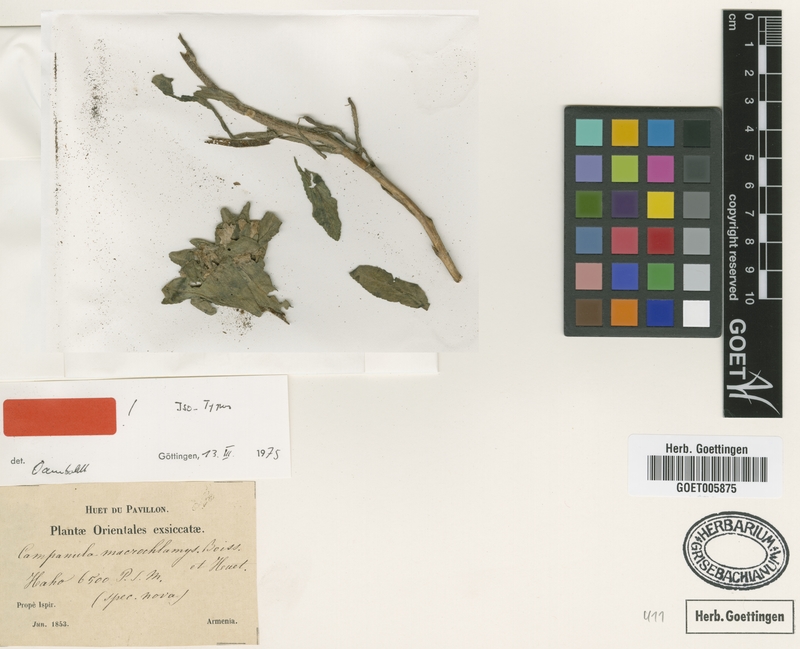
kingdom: Plantae
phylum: Tracheophyta
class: Magnoliopsida
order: Asterales
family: Campanulaceae
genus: Campanula
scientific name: Campanula macrochlamys
